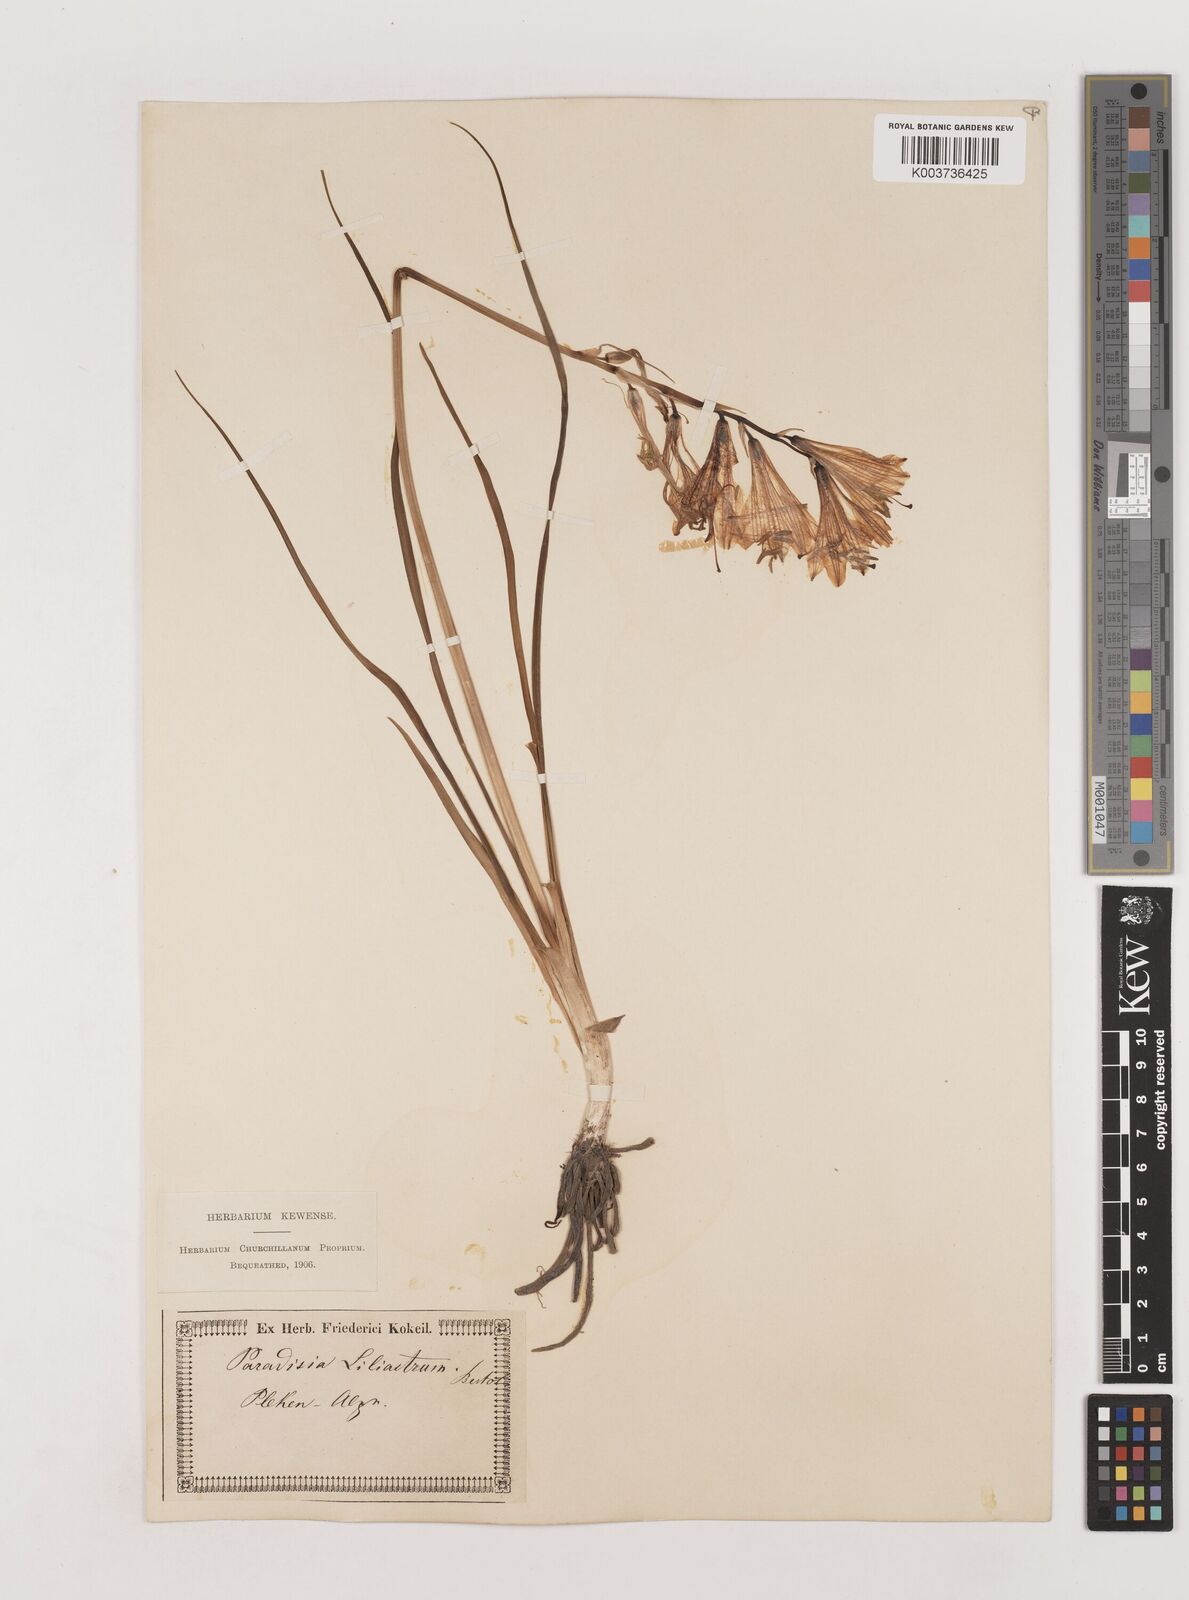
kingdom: Plantae
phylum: Tracheophyta
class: Liliopsida
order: Asparagales
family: Asparagaceae
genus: Paradisea
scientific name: Paradisea liliastrum
